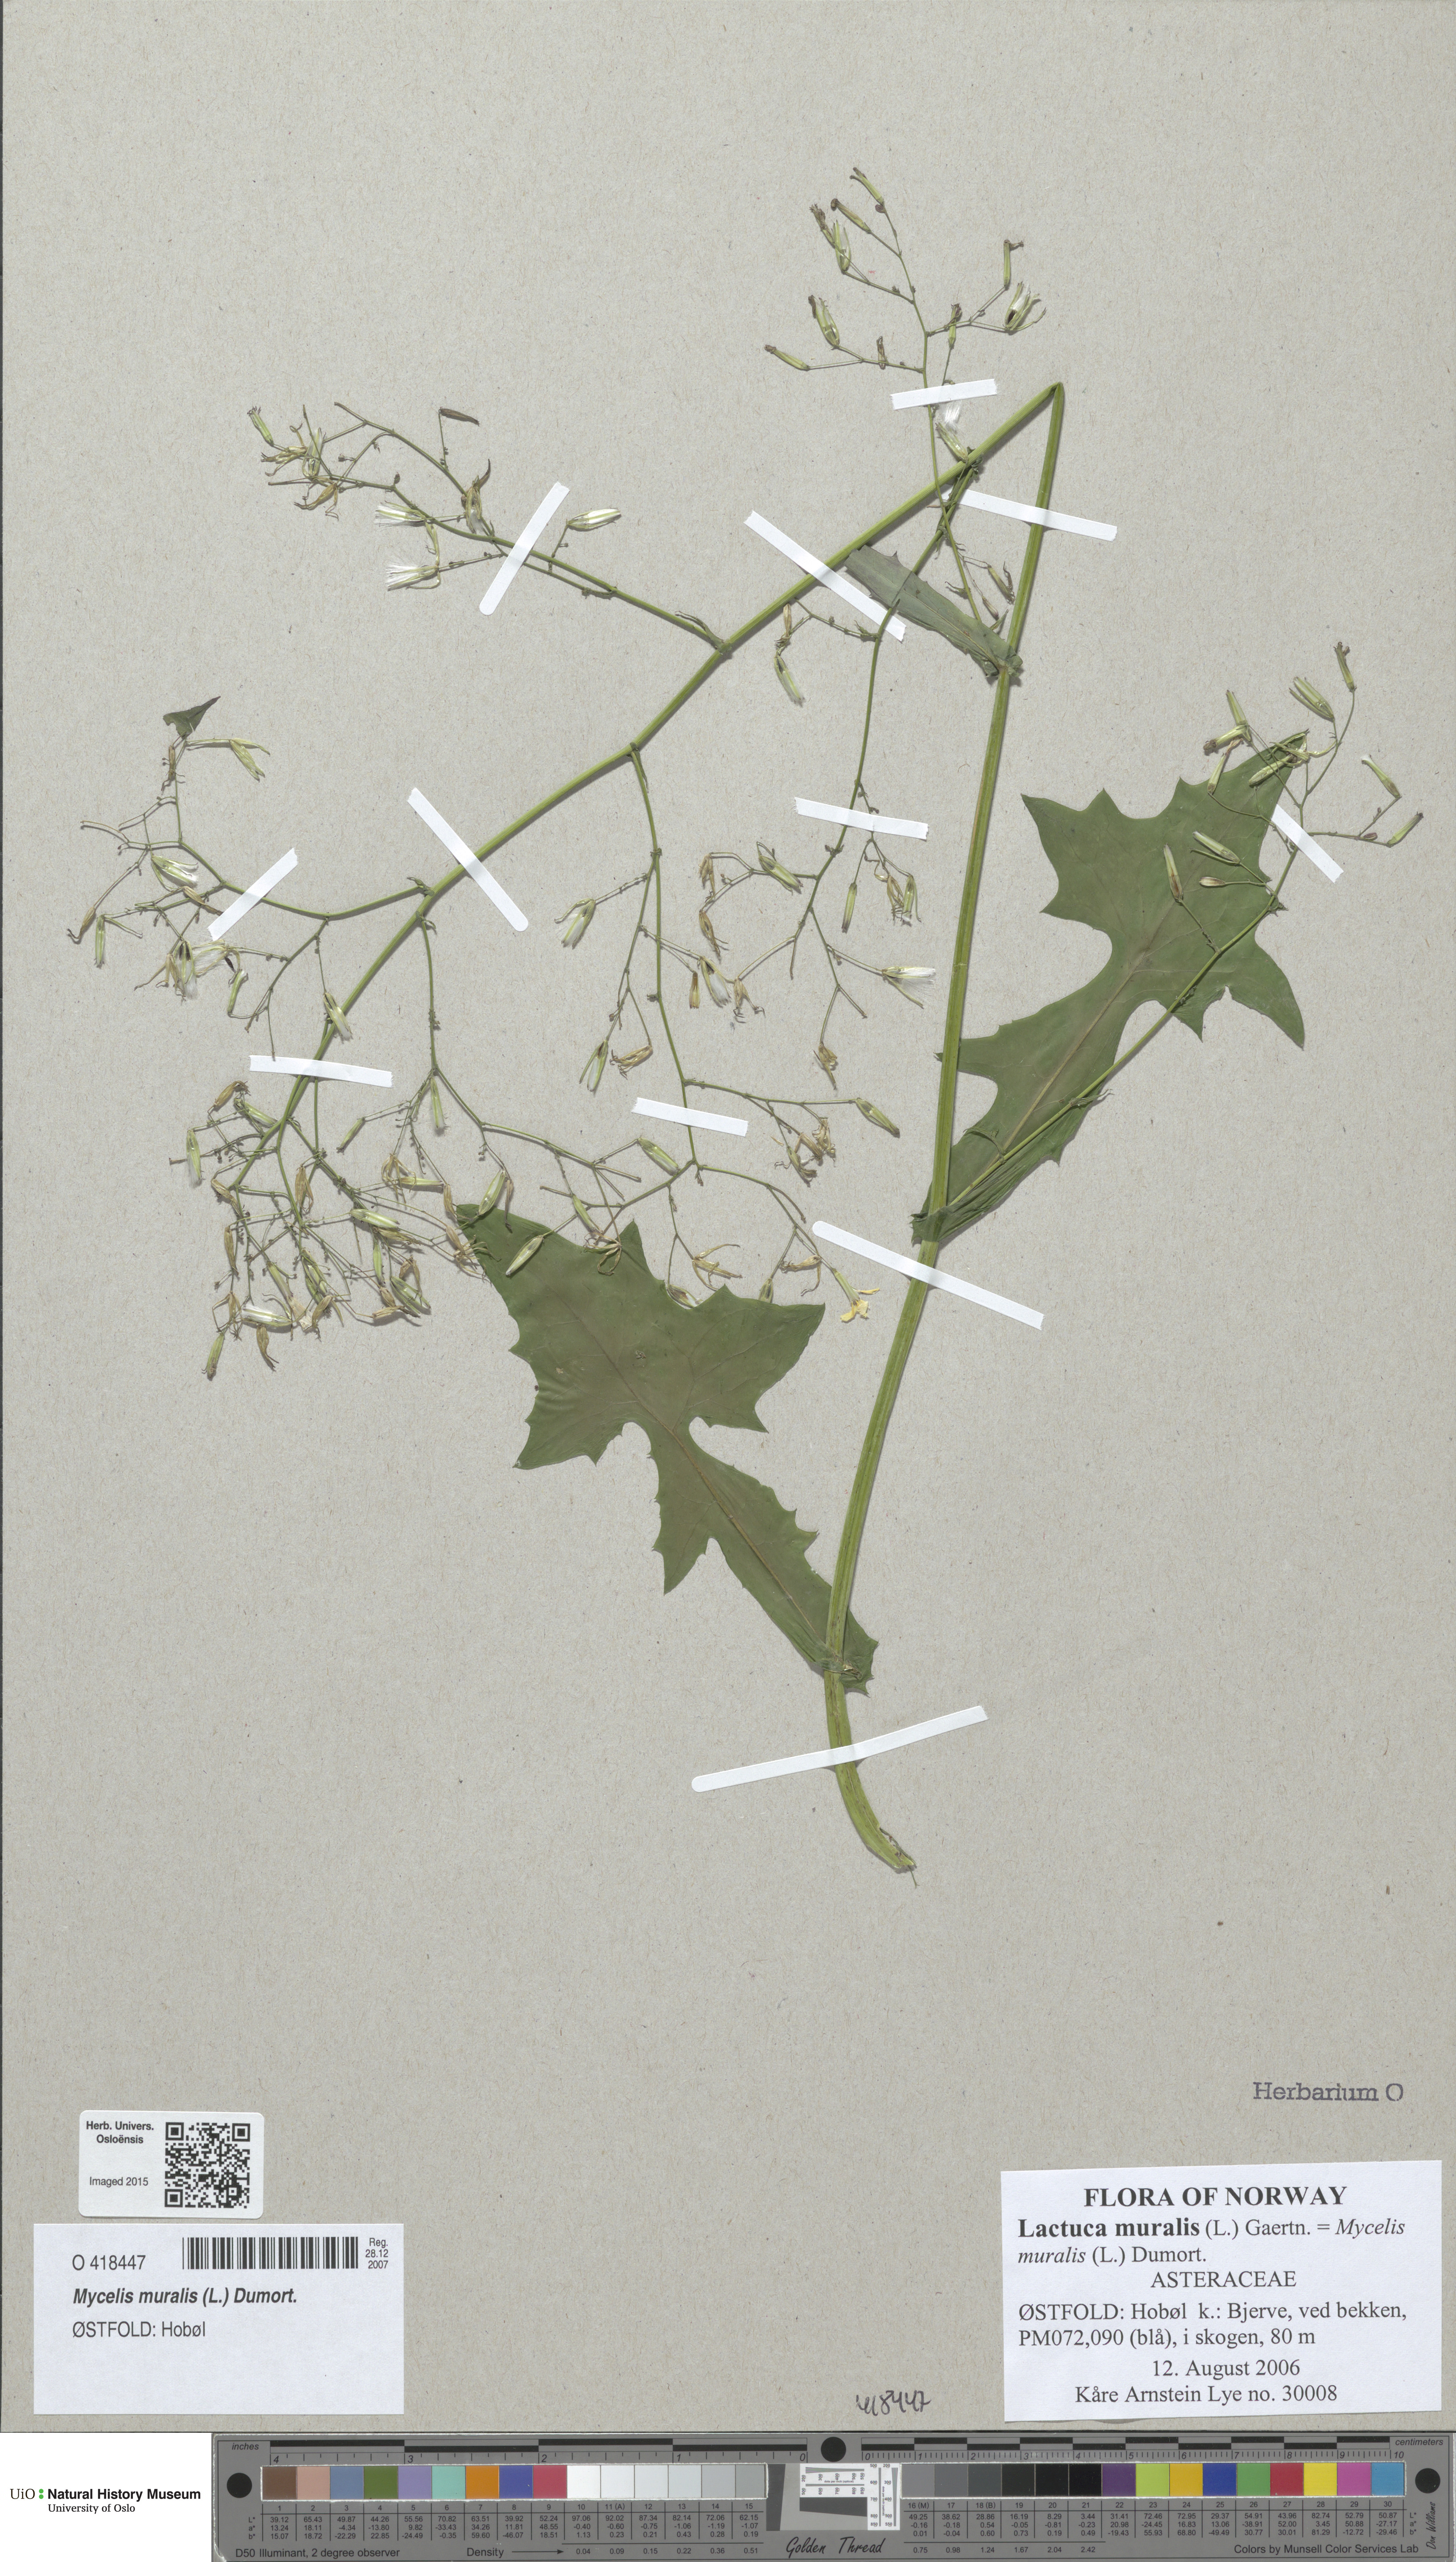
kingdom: Plantae
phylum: Tracheophyta
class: Magnoliopsida
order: Asterales
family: Asteraceae
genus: Mycelis
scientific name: Mycelis muralis
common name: Wall lettuce
